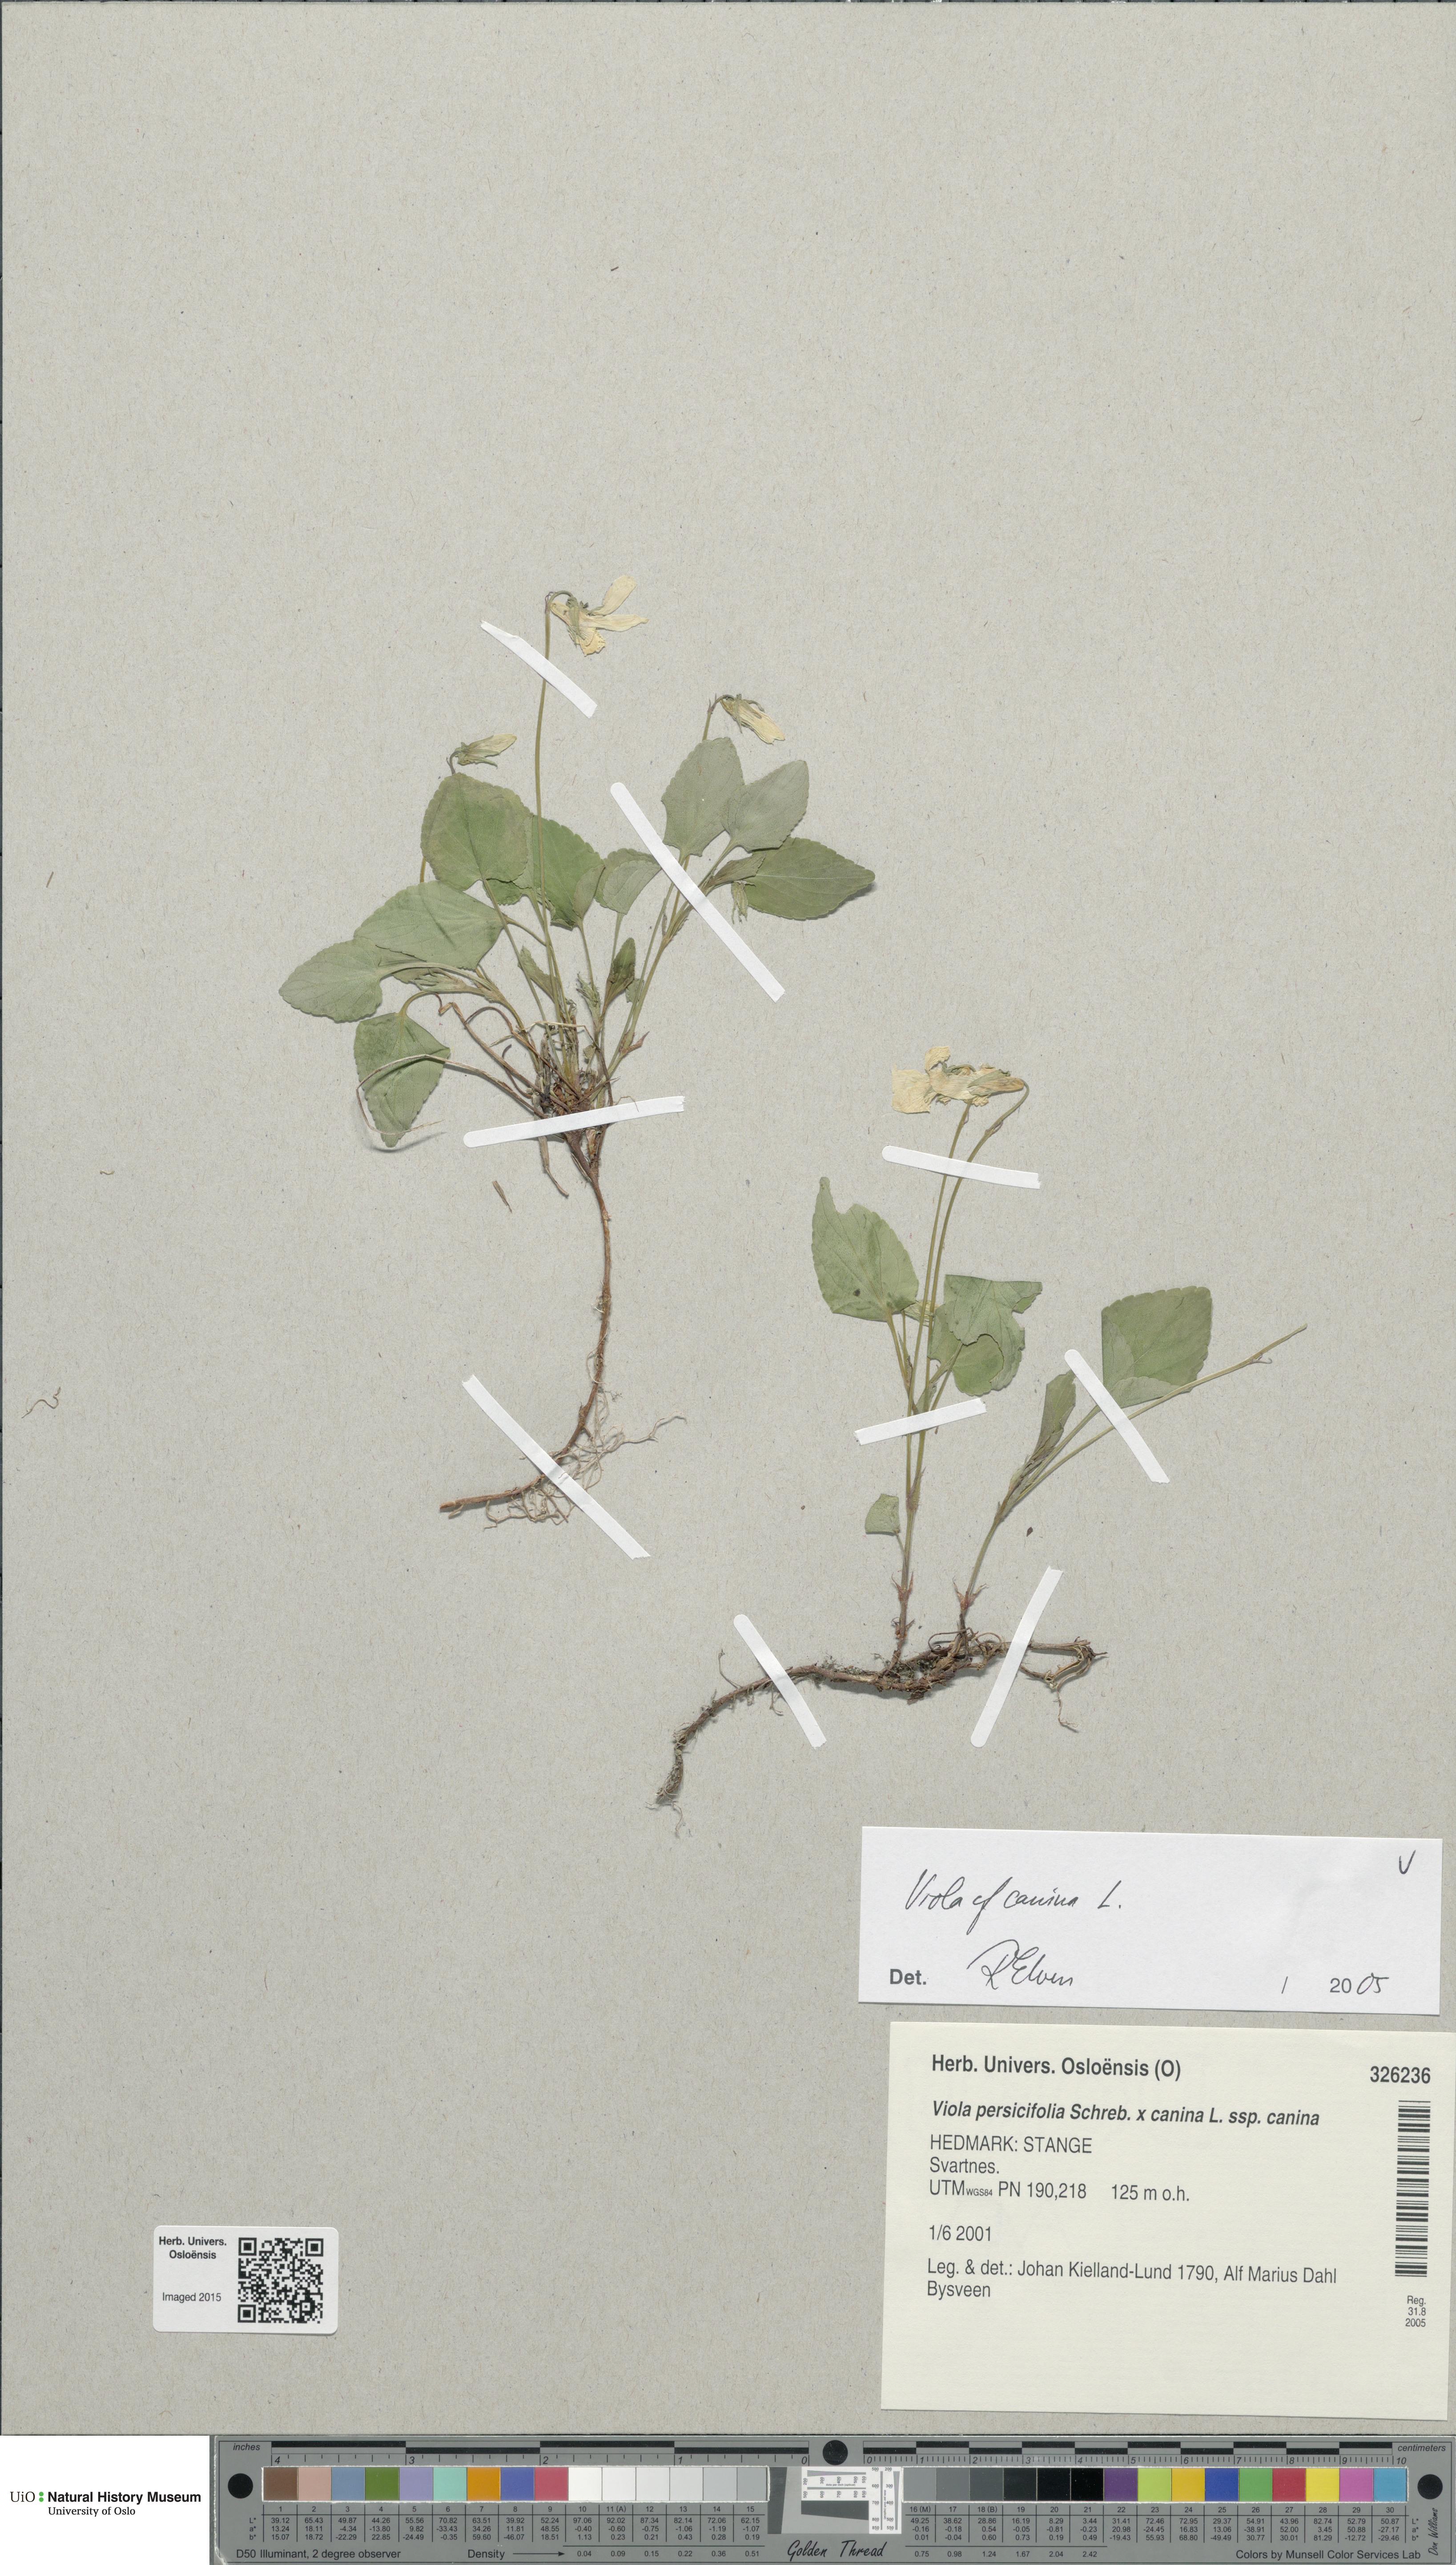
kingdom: Plantae
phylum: Tracheophyta
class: Magnoliopsida
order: Malpighiales
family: Violaceae
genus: Viola
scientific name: Viola canina
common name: Heath dog-violet
